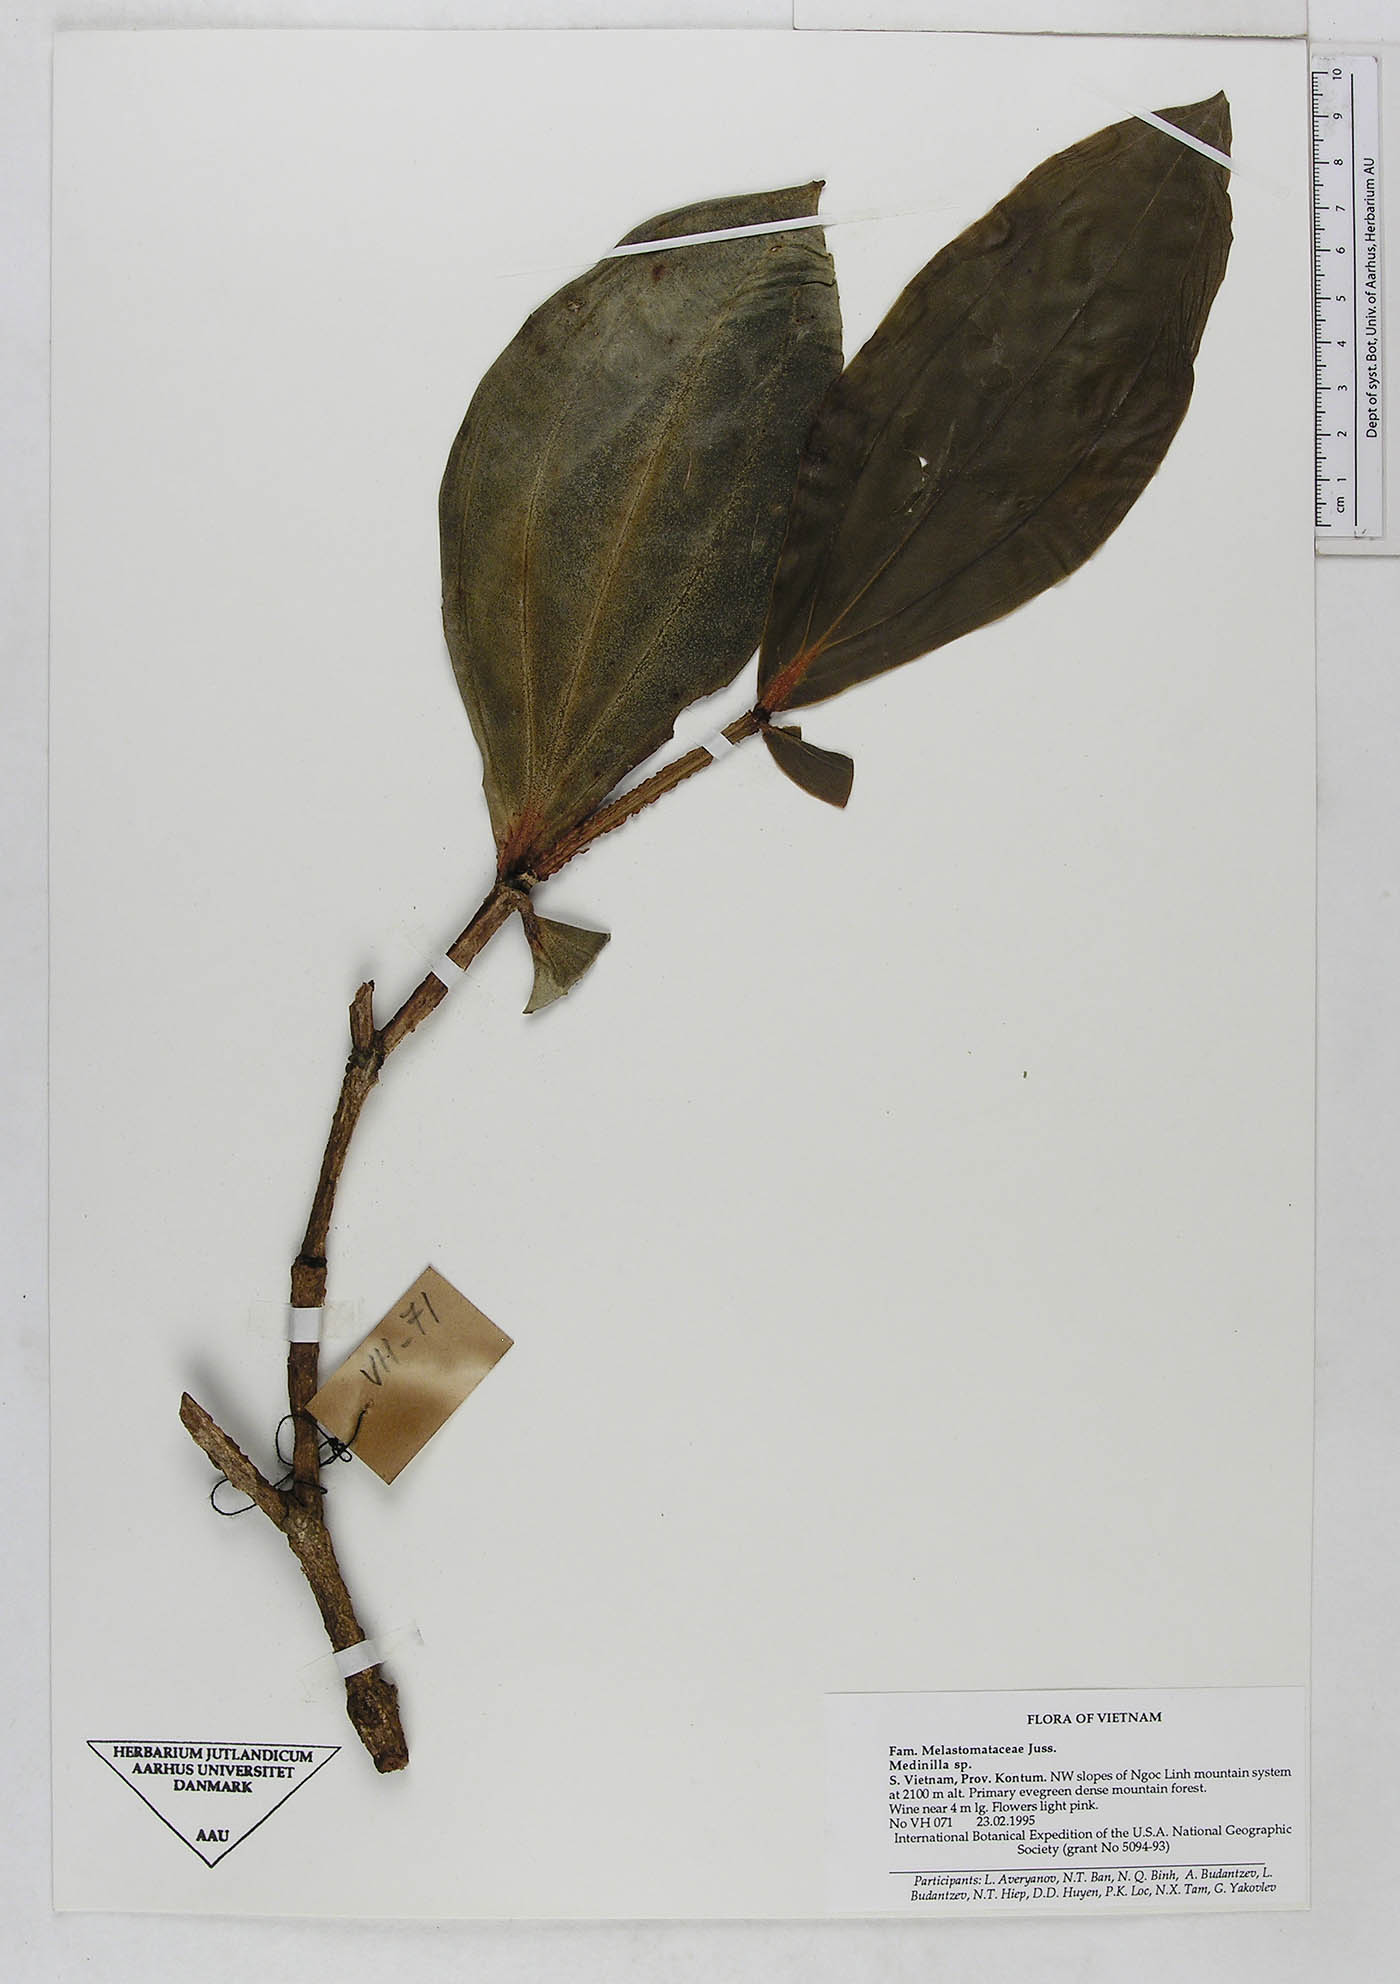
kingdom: Plantae
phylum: Tracheophyta
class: Magnoliopsida
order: Myrtales
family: Melastomataceae
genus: Medinilla
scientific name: Medinilla
